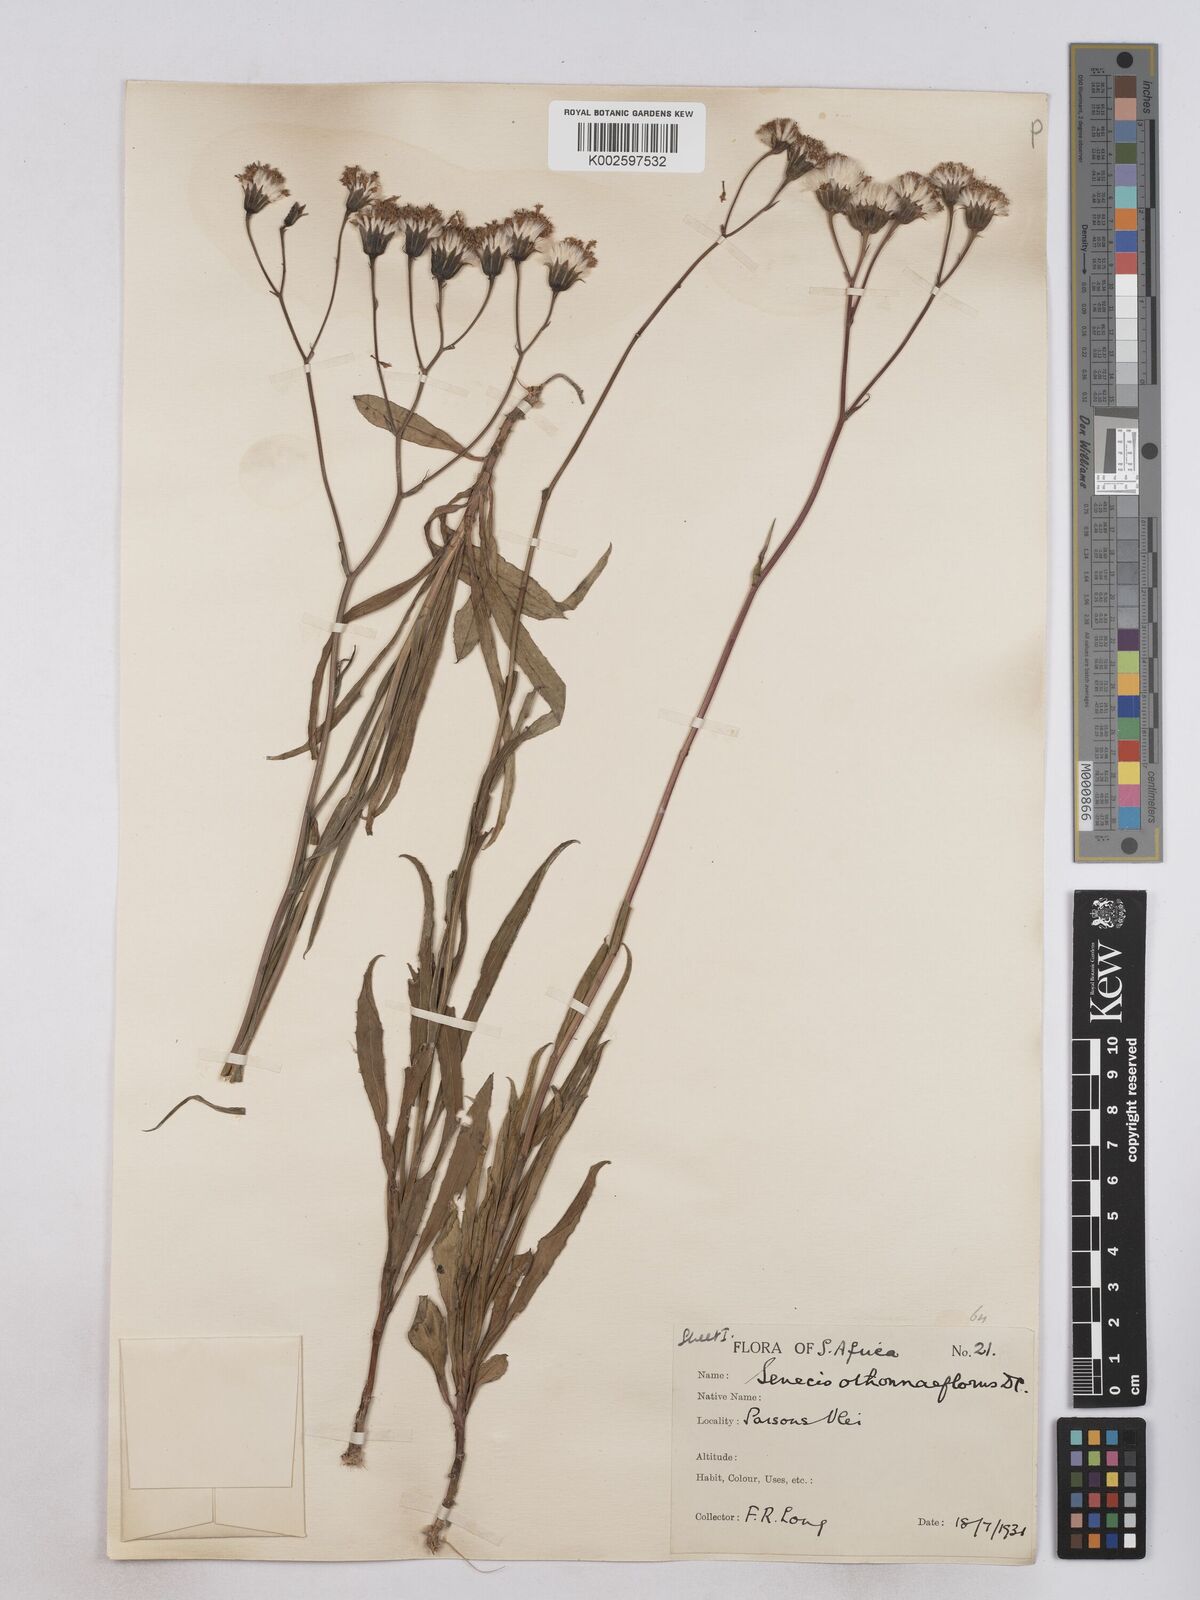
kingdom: Plantae
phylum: Tracheophyta
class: Magnoliopsida
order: Asterales
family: Asteraceae
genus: Senecio
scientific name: Senecio othonniflorus
